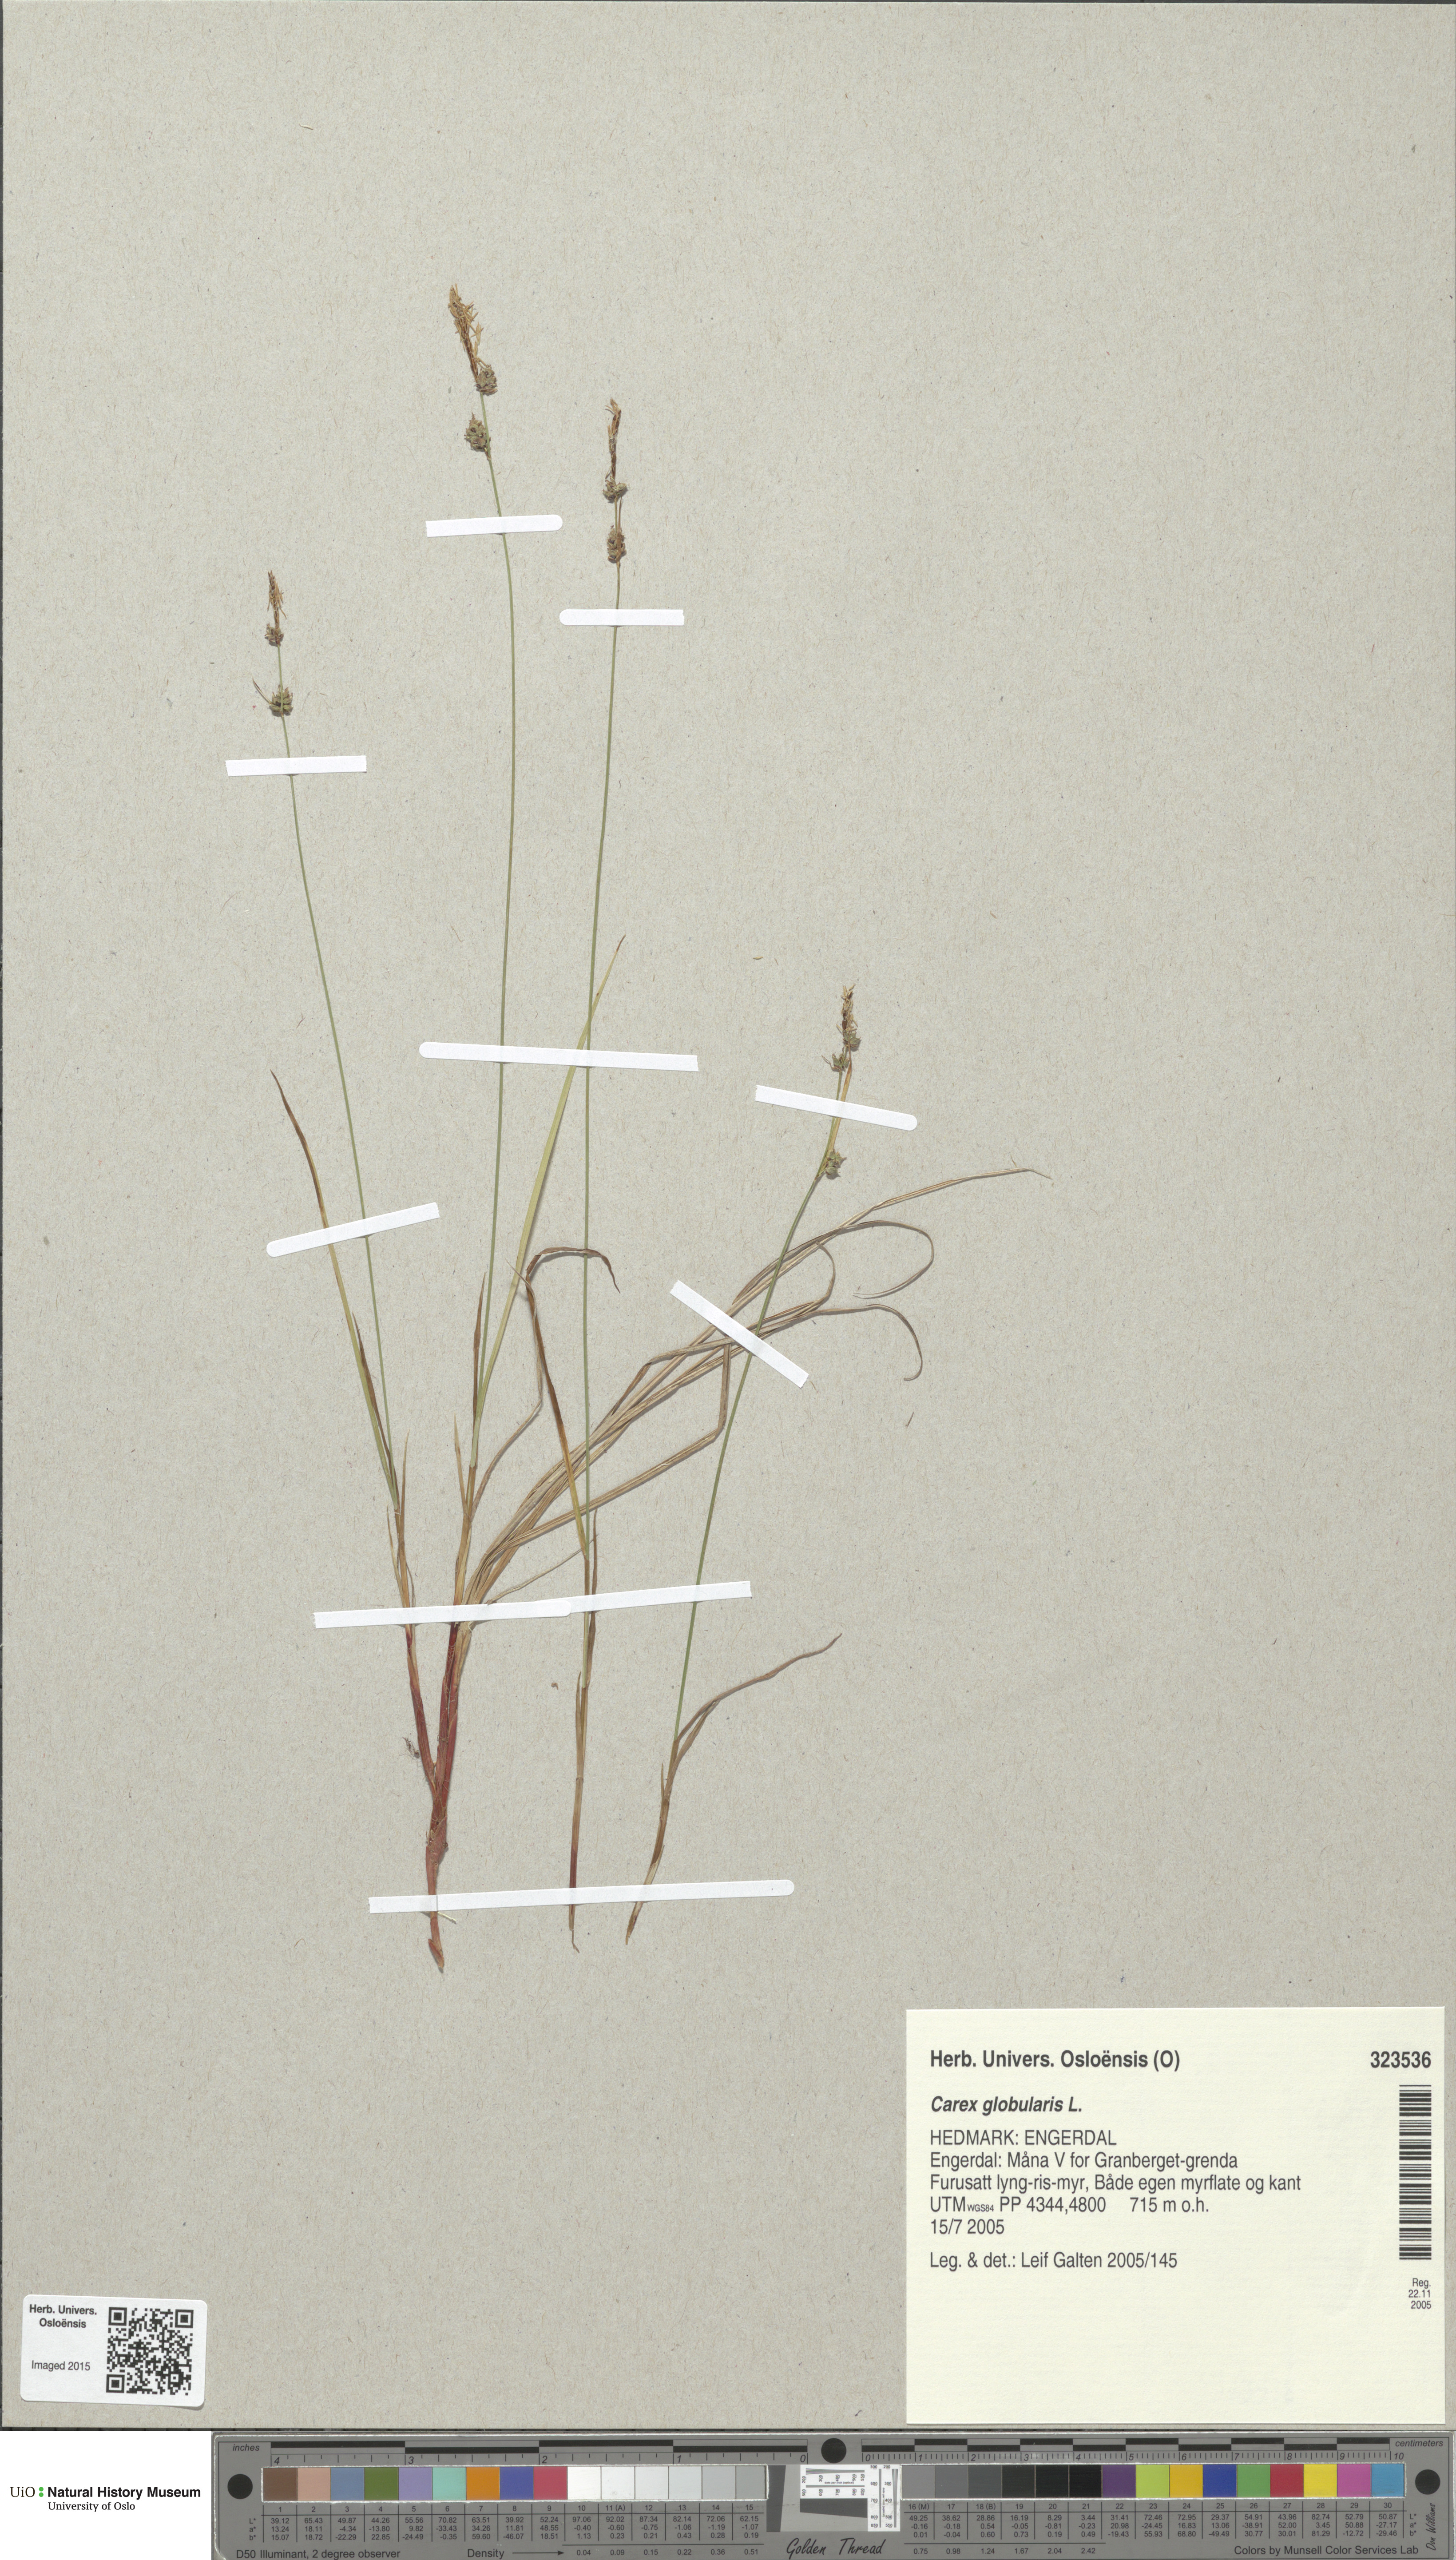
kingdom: Plantae
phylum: Tracheophyta
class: Liliopsida
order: Poales
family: Cyperaceae
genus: Carex
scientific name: Carex globularis
